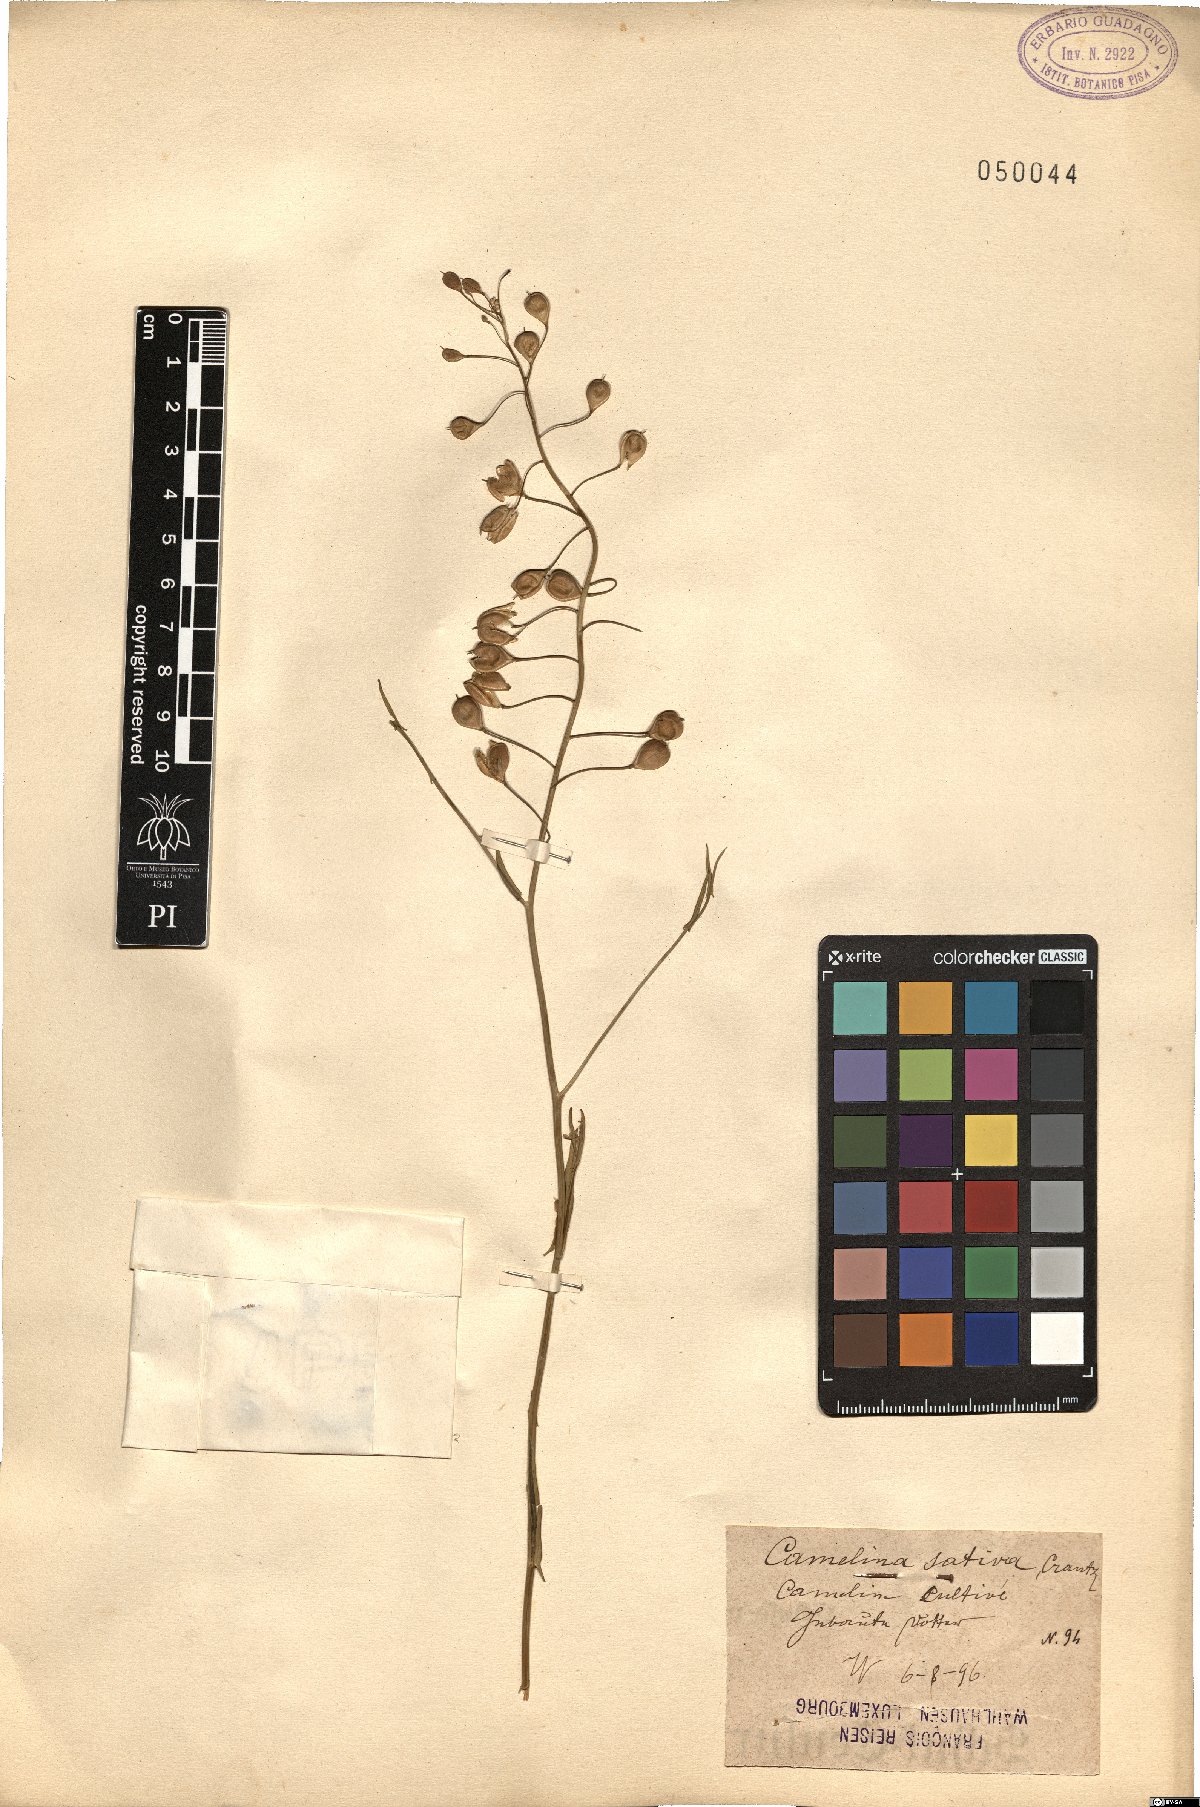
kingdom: Plantae
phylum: Tracheophyta
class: Magnoliopsida
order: Brassicales
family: Brassicaceae
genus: Camelina
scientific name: Camelina sativa
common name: Gold-of-pleasure
